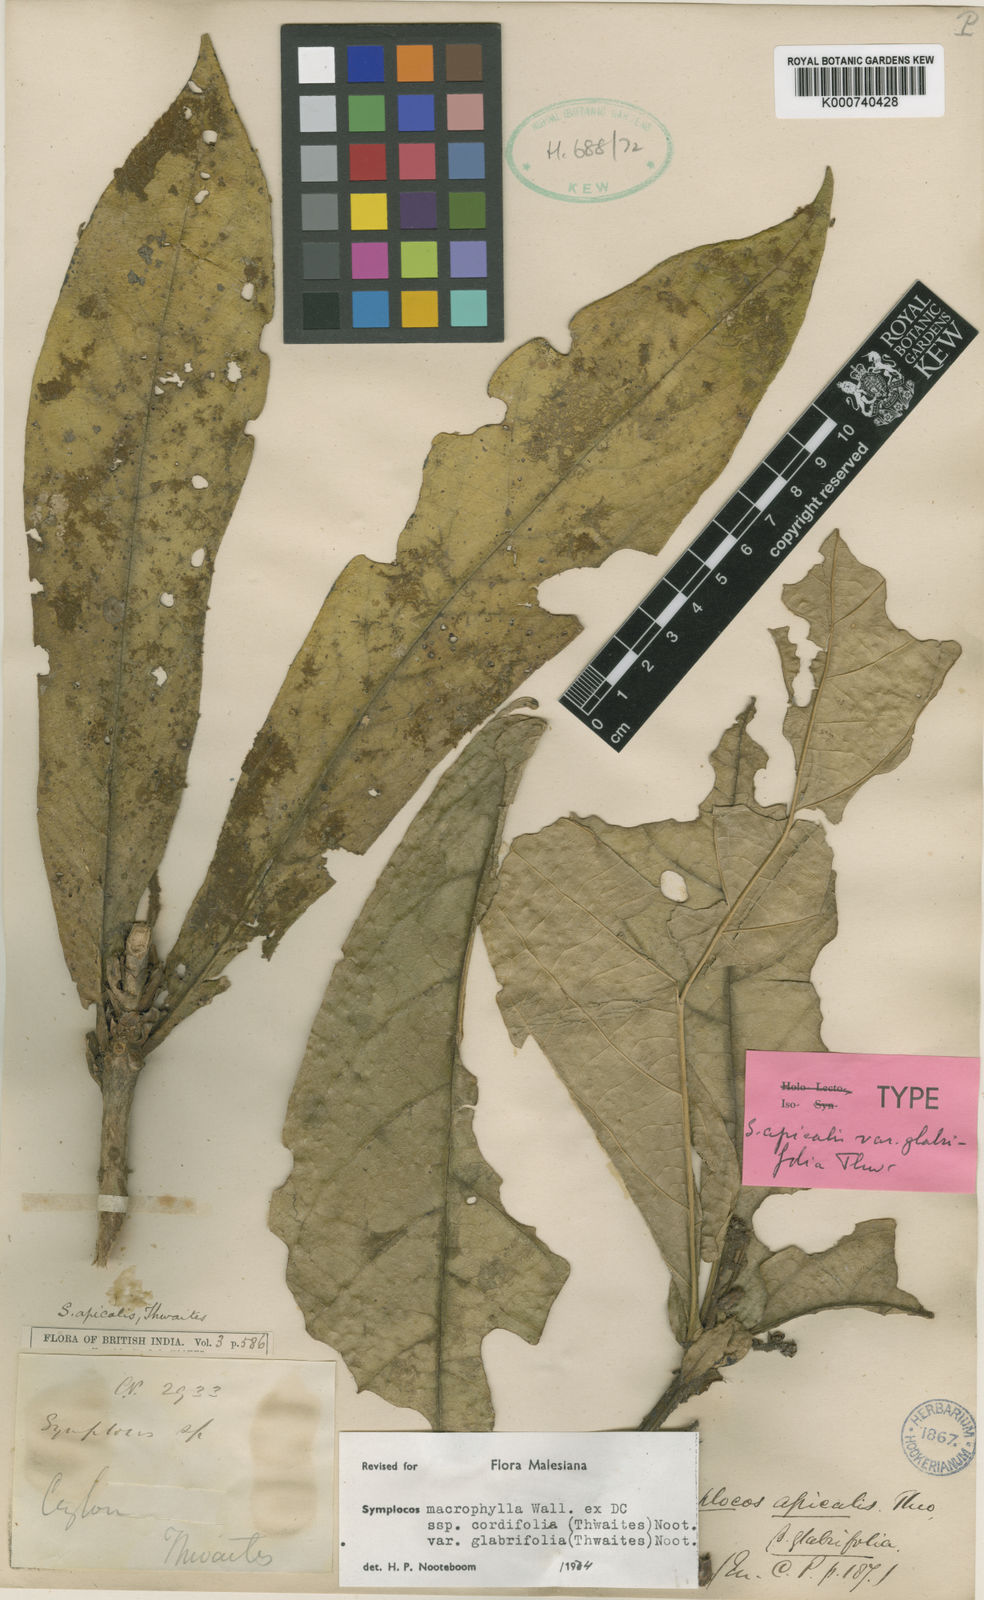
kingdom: Plantae
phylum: Tracheophyta
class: Magnoliopsida
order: Ericales
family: Symplocaceae
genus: Symplocos
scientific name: Symplocos
